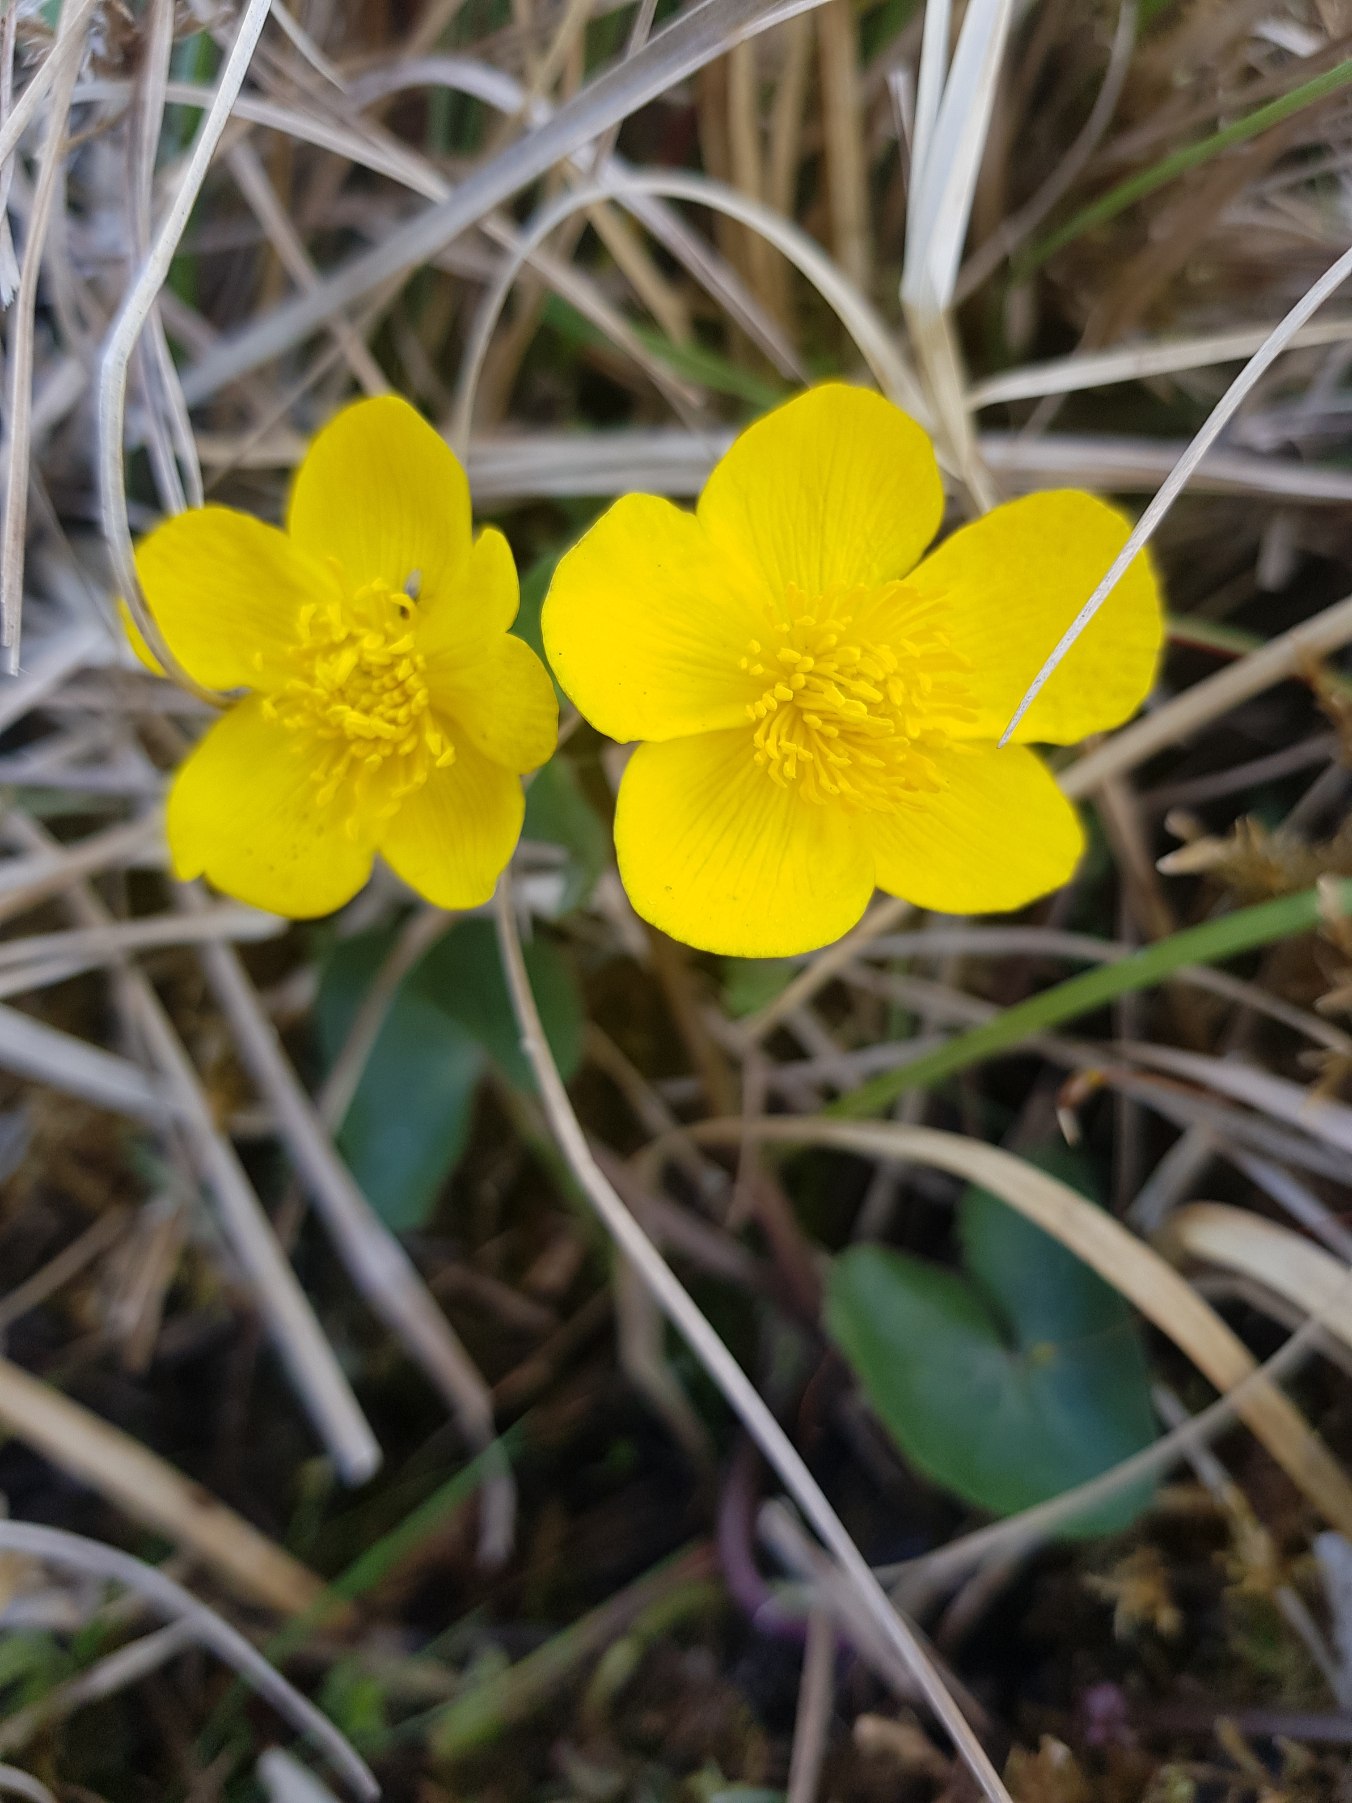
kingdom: Plantae
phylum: Tracheophyta
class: Magnoliopsida
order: Ranunculales
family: Ranunculaceae
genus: Caltha
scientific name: Caltha palustris
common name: Eng-kabbeleje
